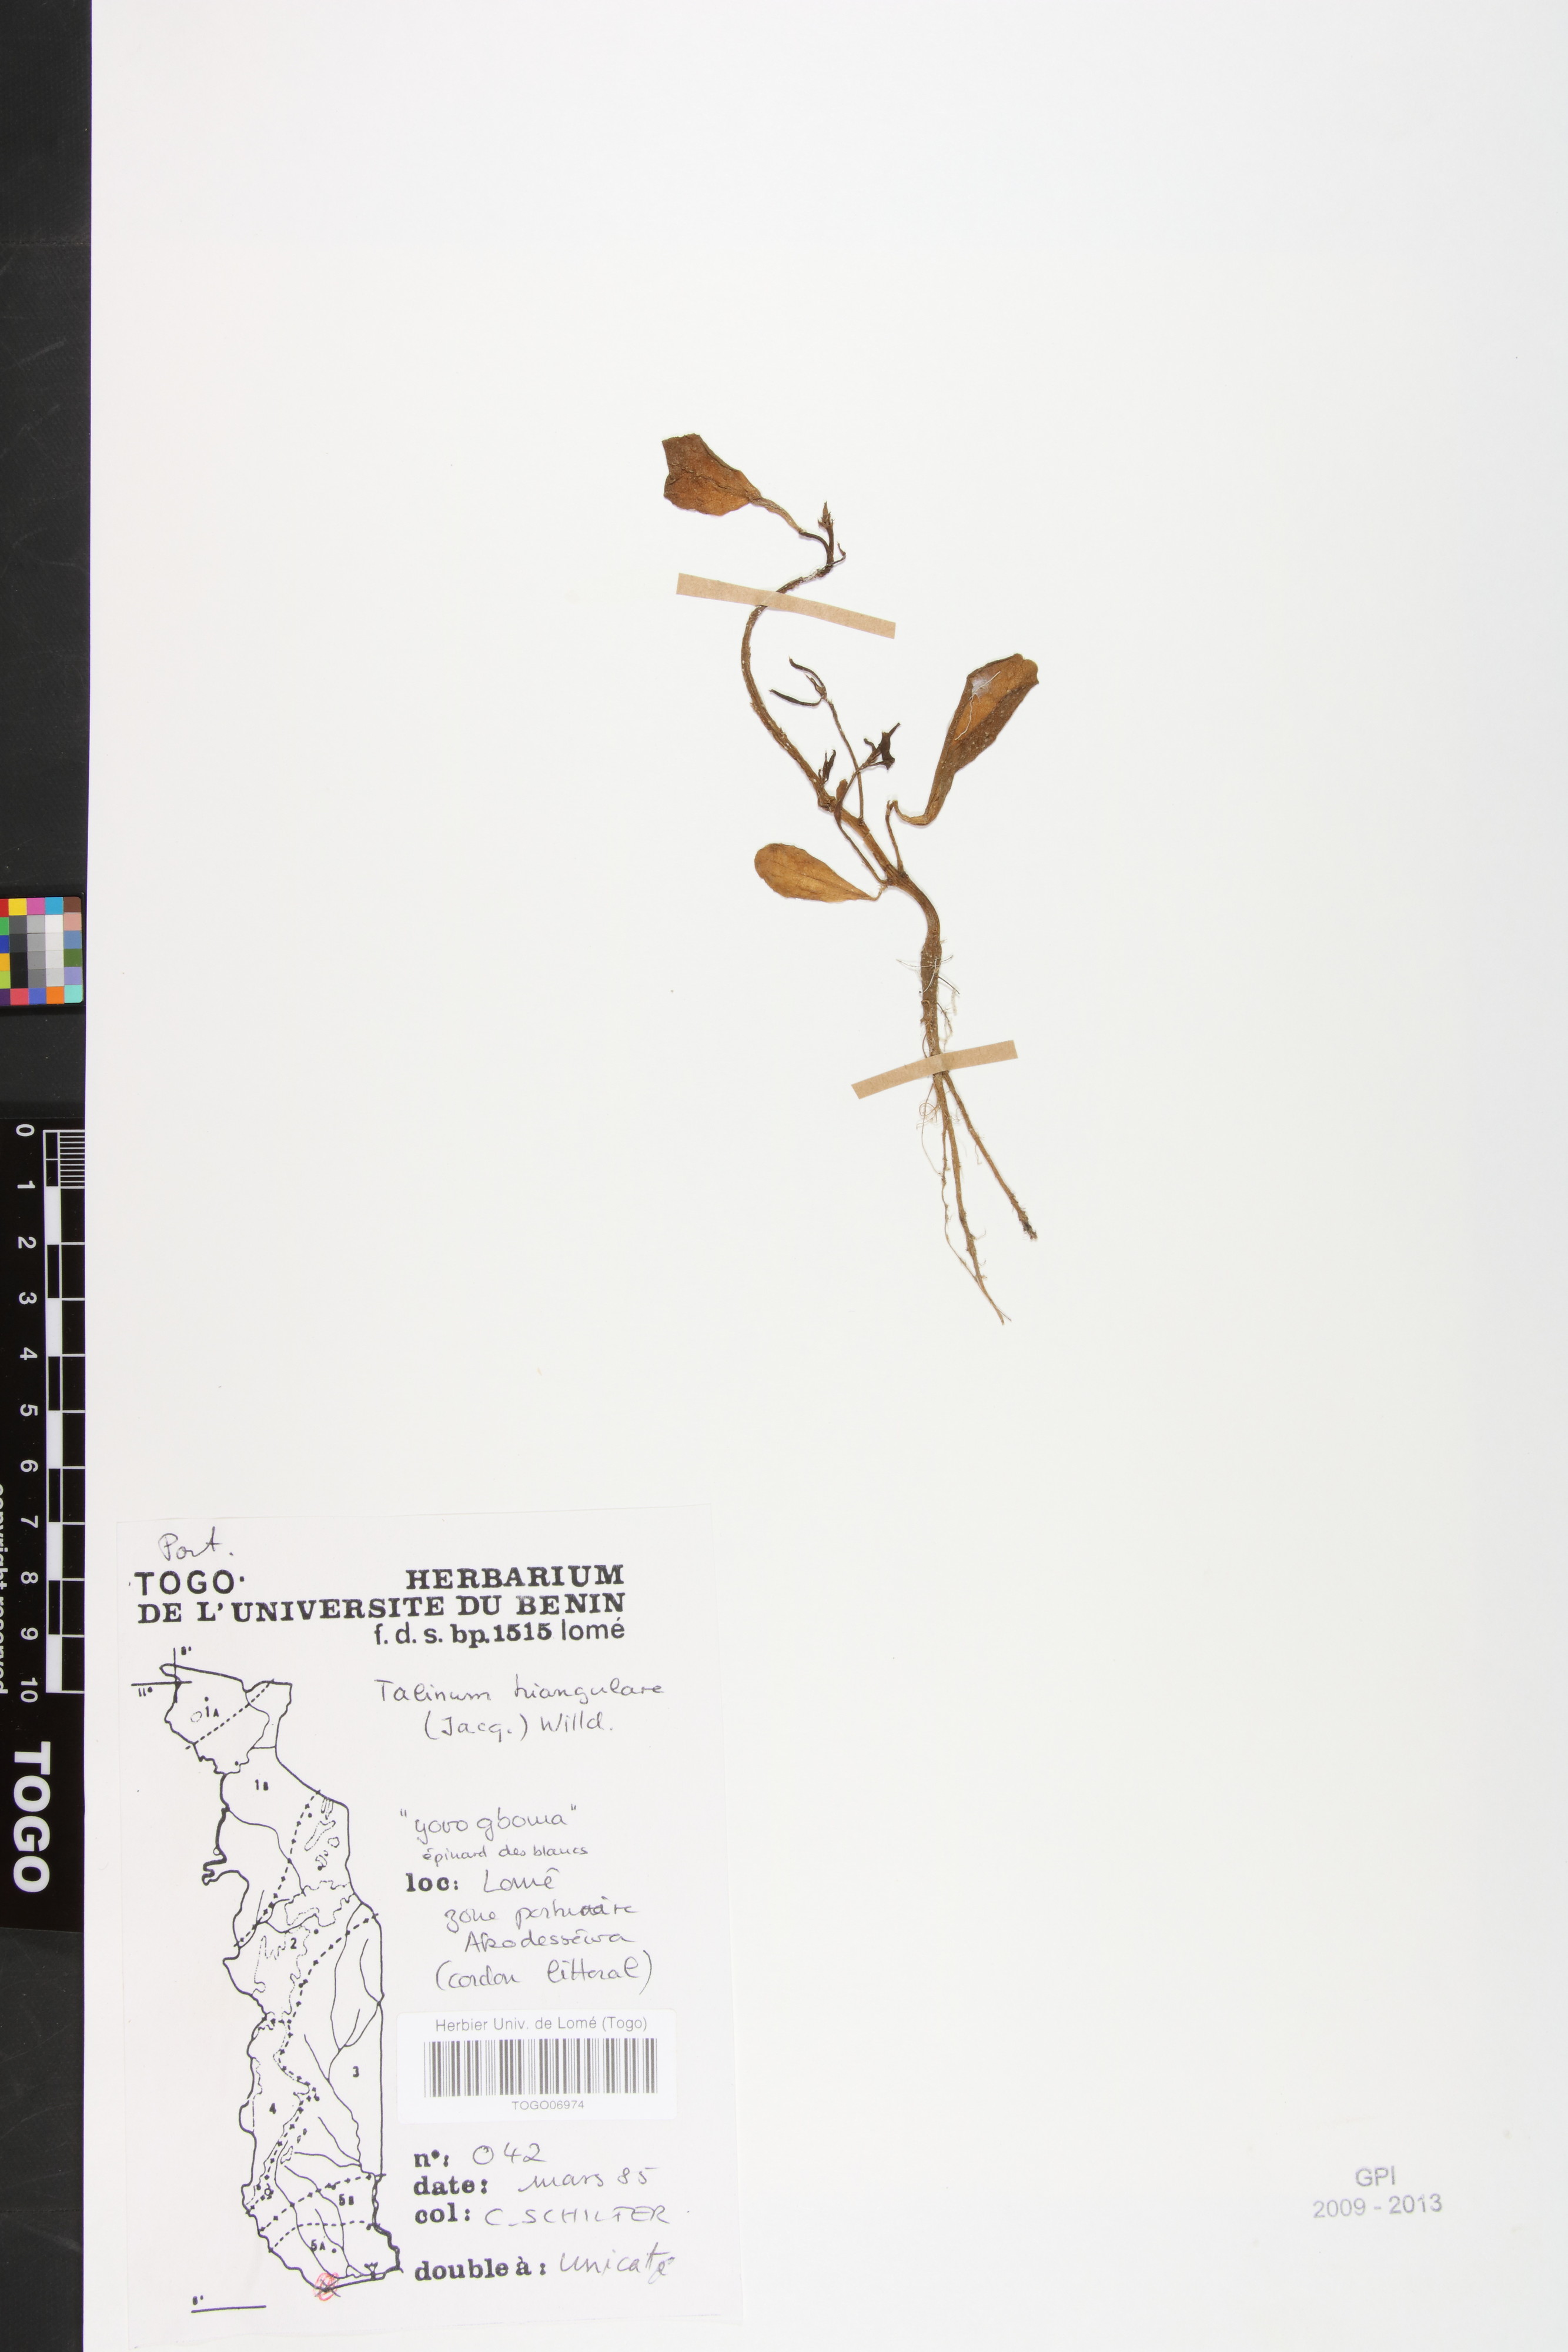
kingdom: Plantae
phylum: Tracheophyta
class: Magnoliopsida
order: Caryophyllales
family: Talinaceae
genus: Talinum
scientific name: Talinum fruticosum
